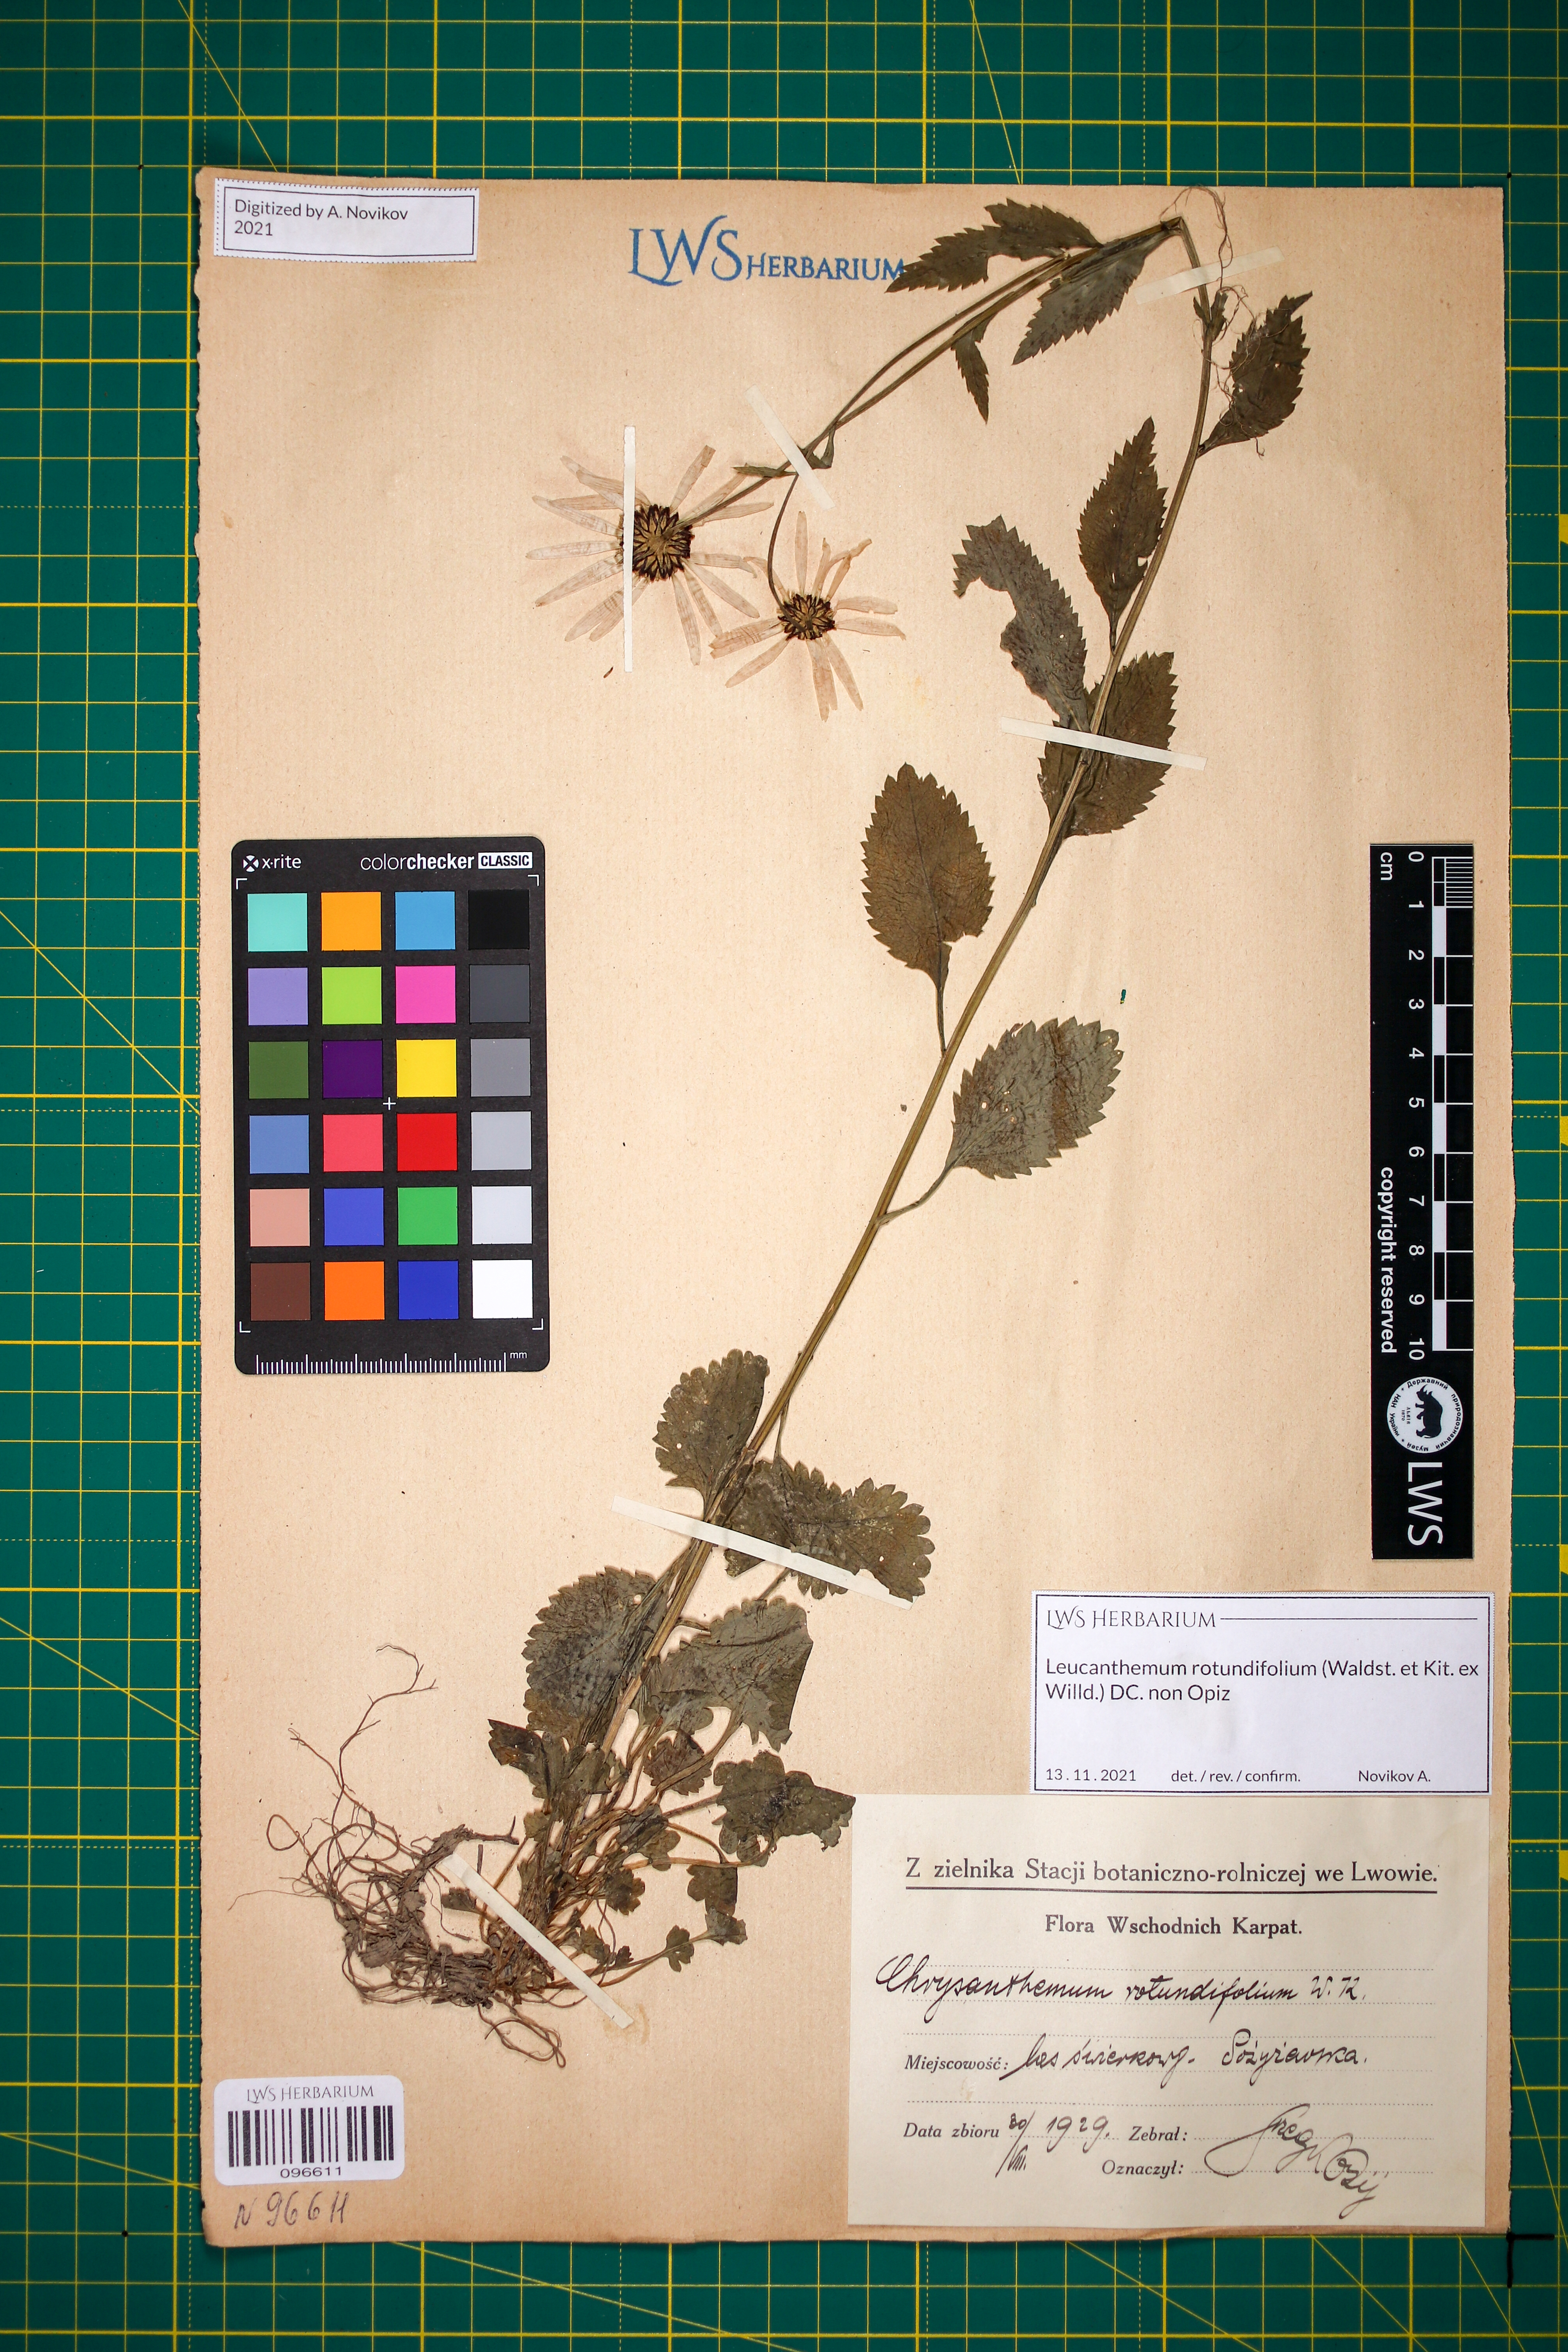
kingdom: Plantae
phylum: Tracheophyta
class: Magnoliopsida
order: Asterales
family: Asteraceae
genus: Leucanthemum
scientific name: Leucanthemum rotundifolium
